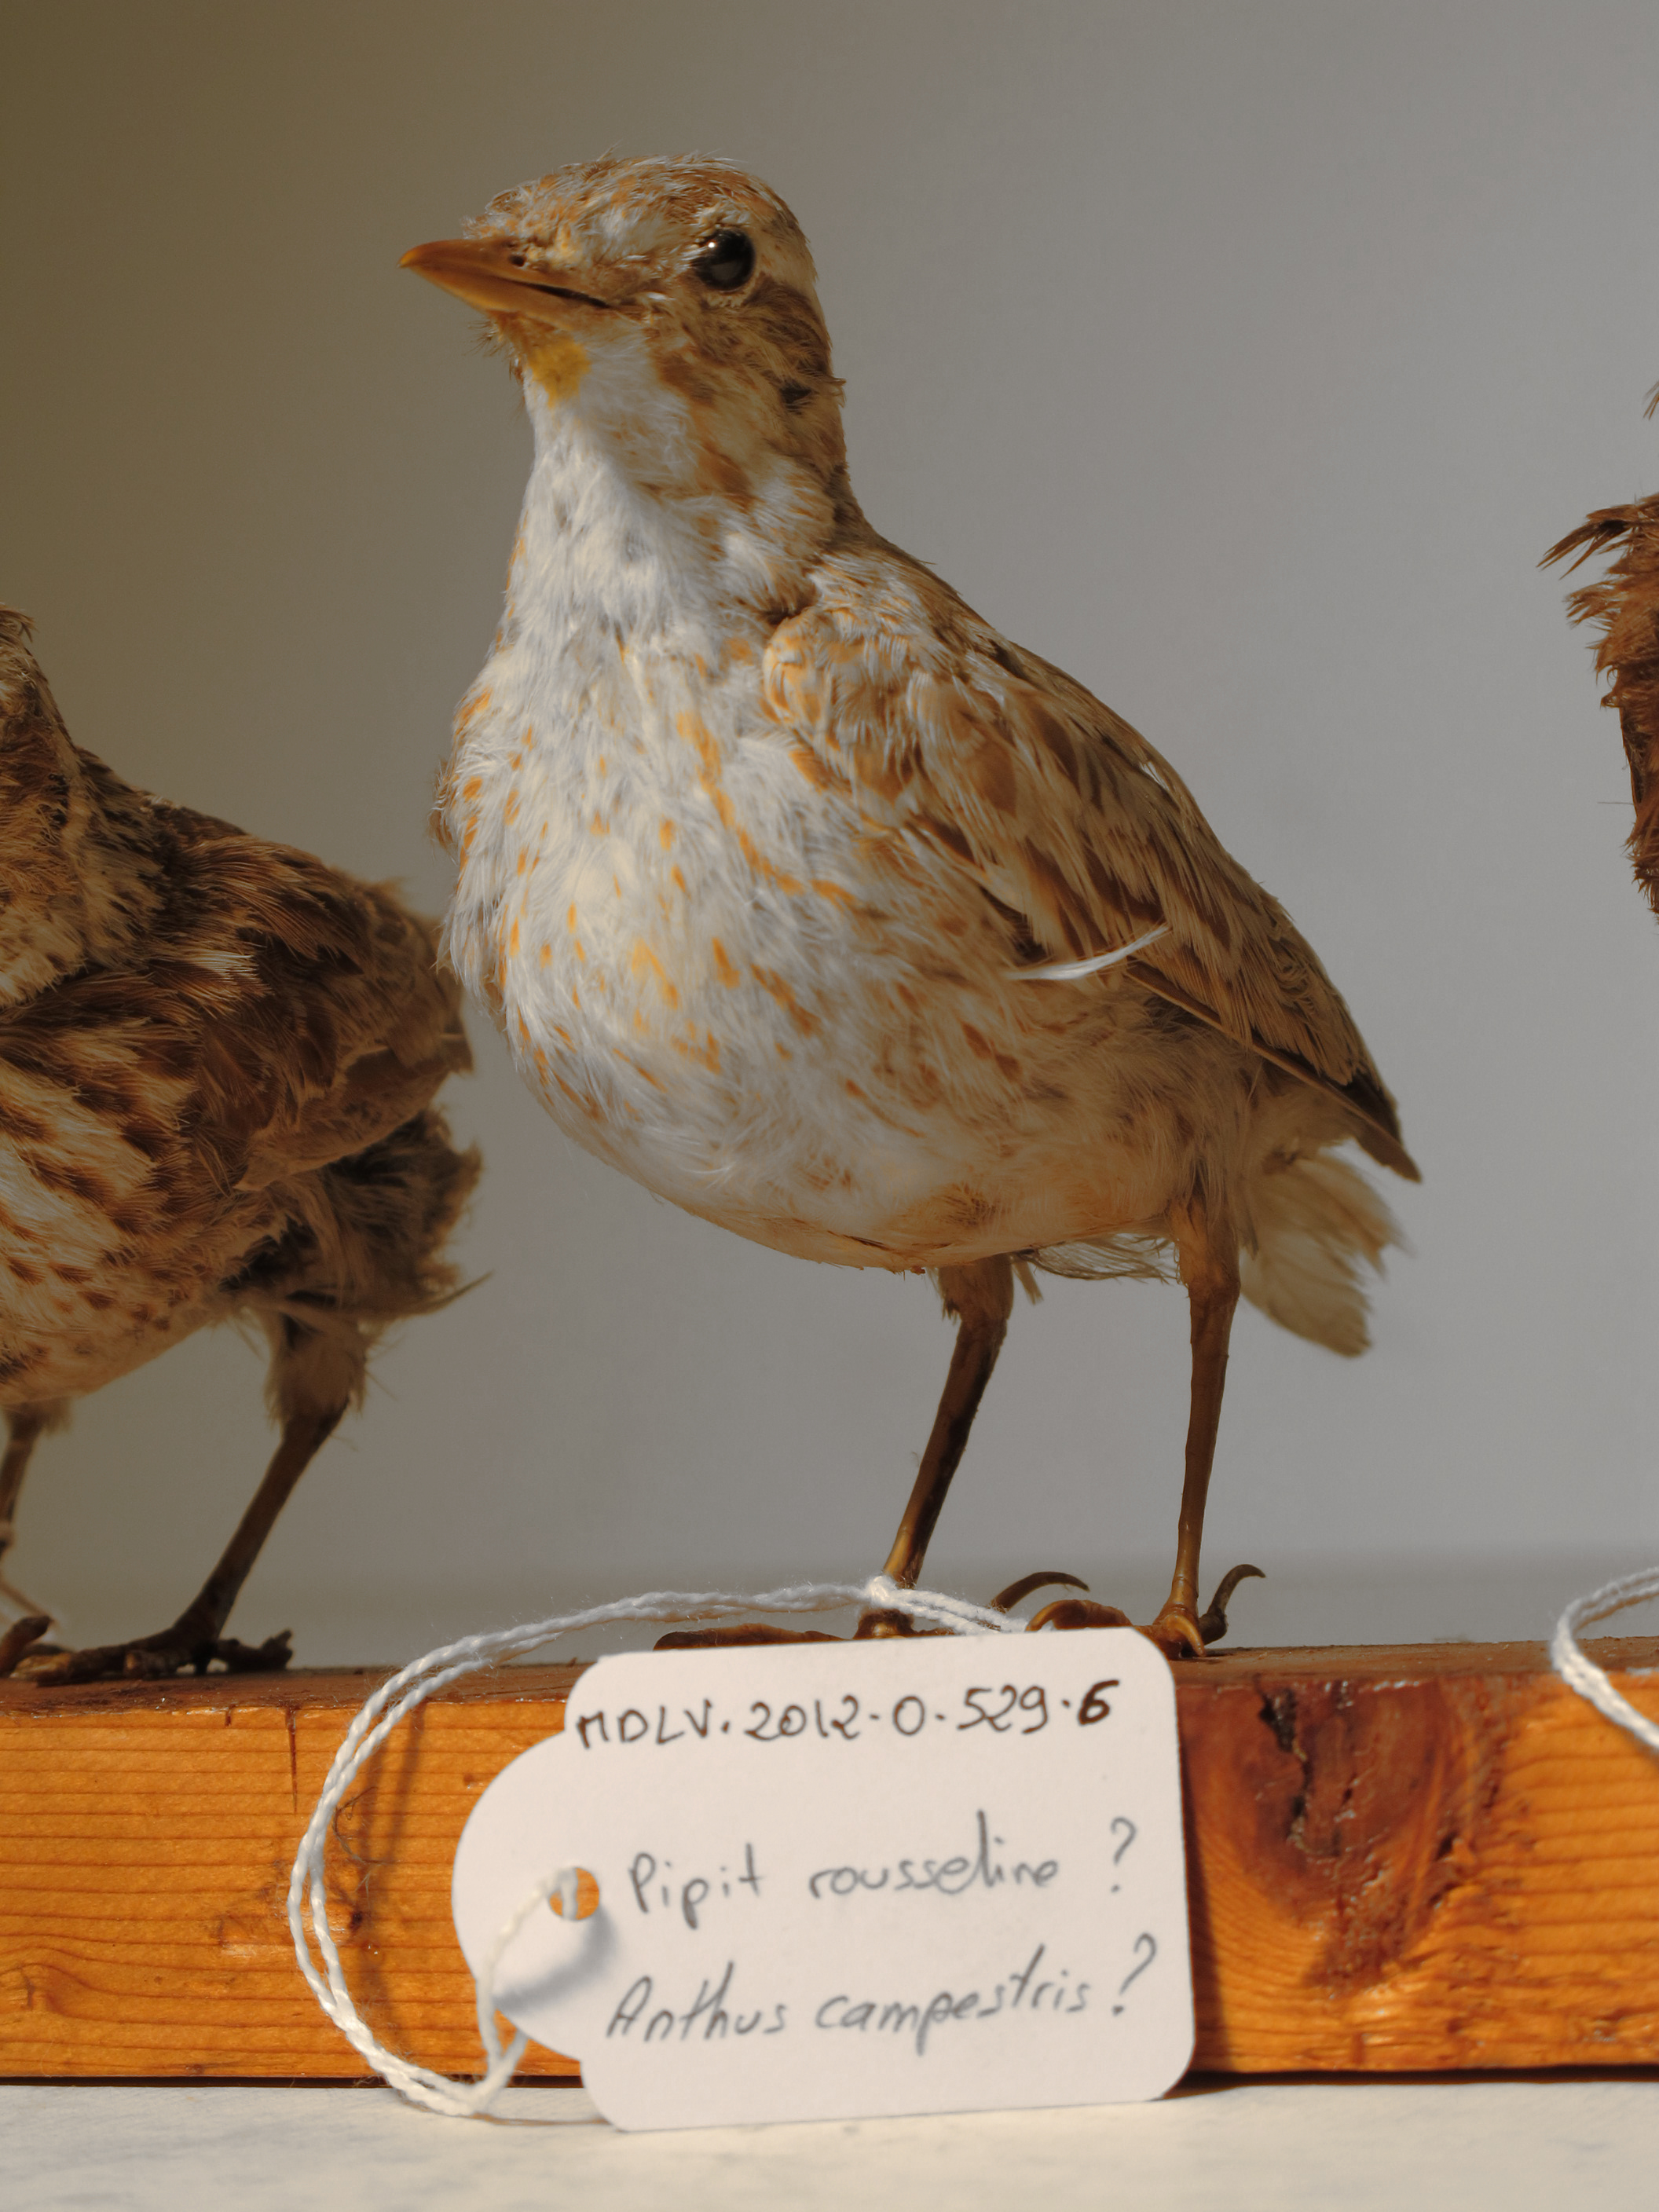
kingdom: Animalia
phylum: Chordata
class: Aves
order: Passeriformes
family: Motacillidae
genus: Anthus
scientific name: Anthus
